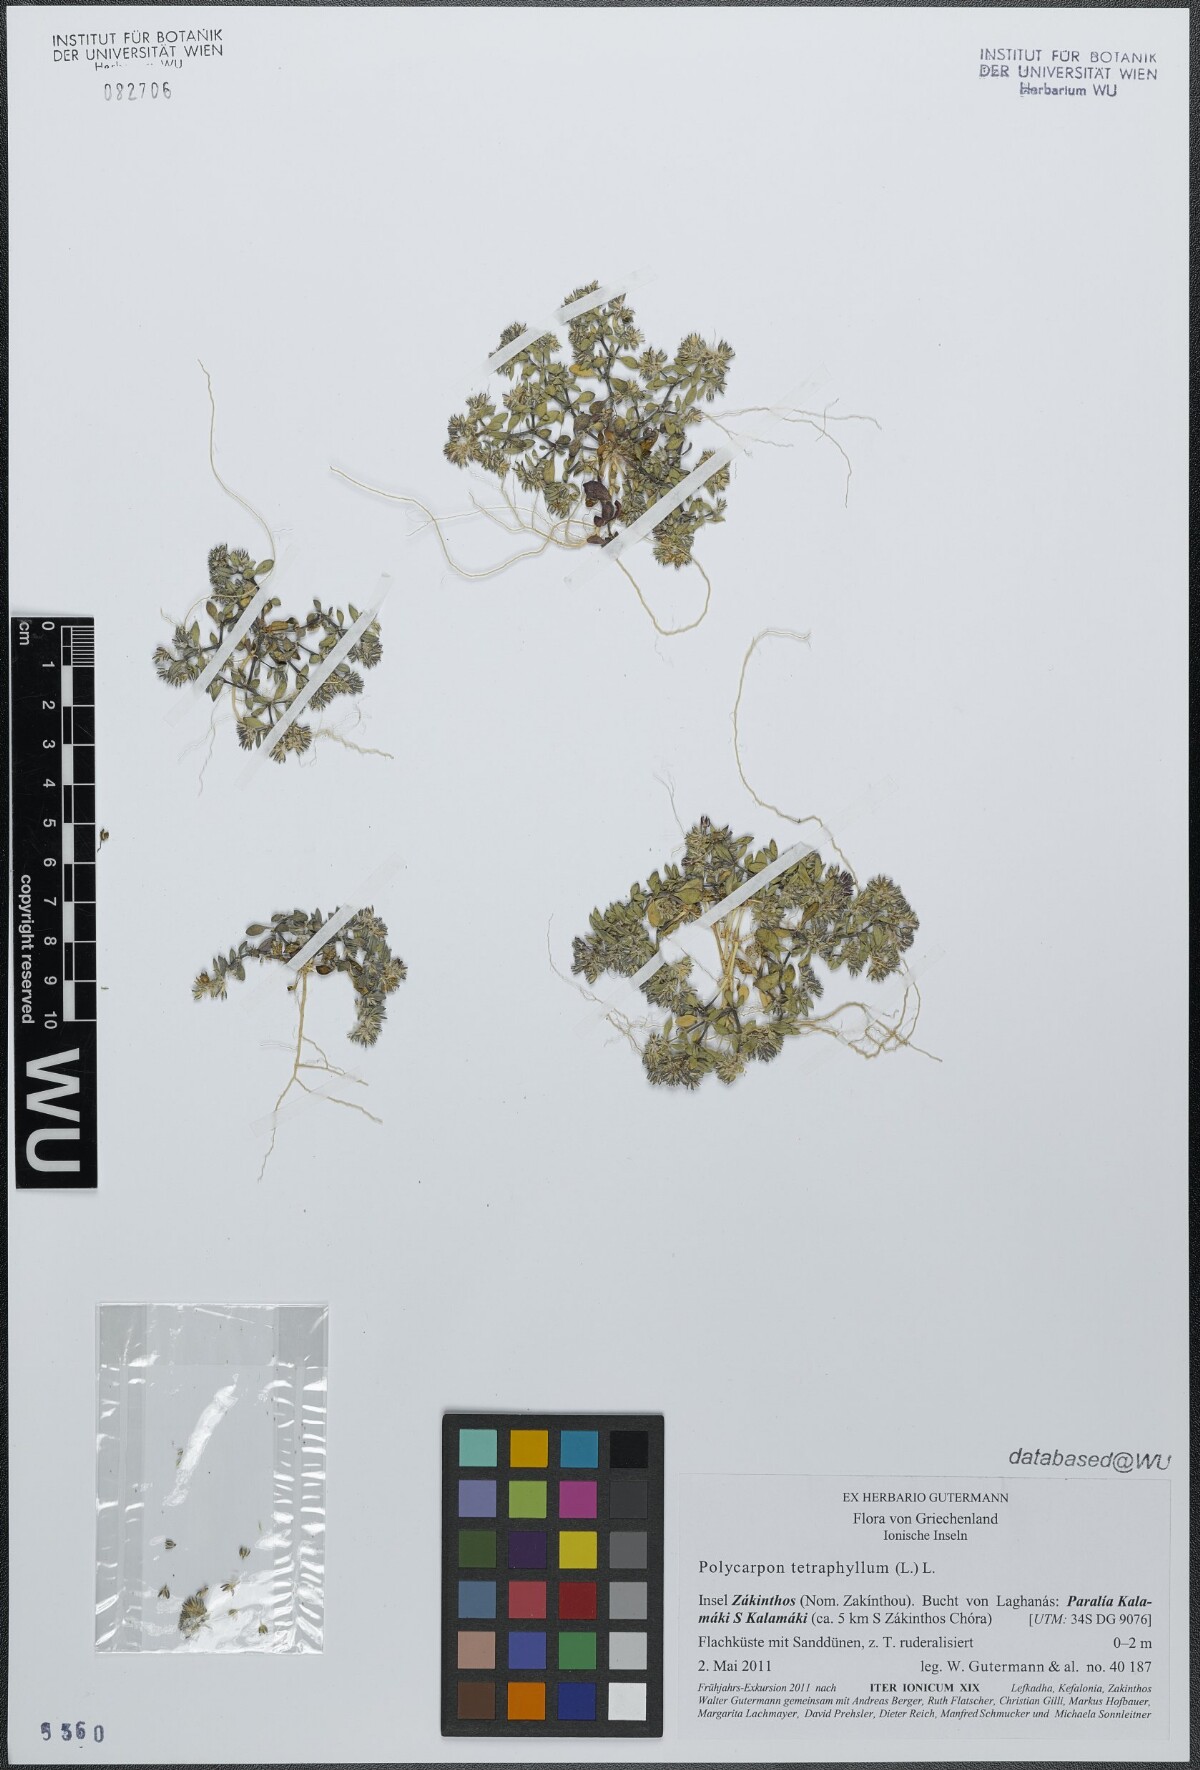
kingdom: Plantae
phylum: Tracheophyta
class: Magnoliopsida
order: Caryophyllales
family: Caryophyllaceae
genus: Polycarpon
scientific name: Polycarpon tetraphyllum
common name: Four-leaved all-seed
